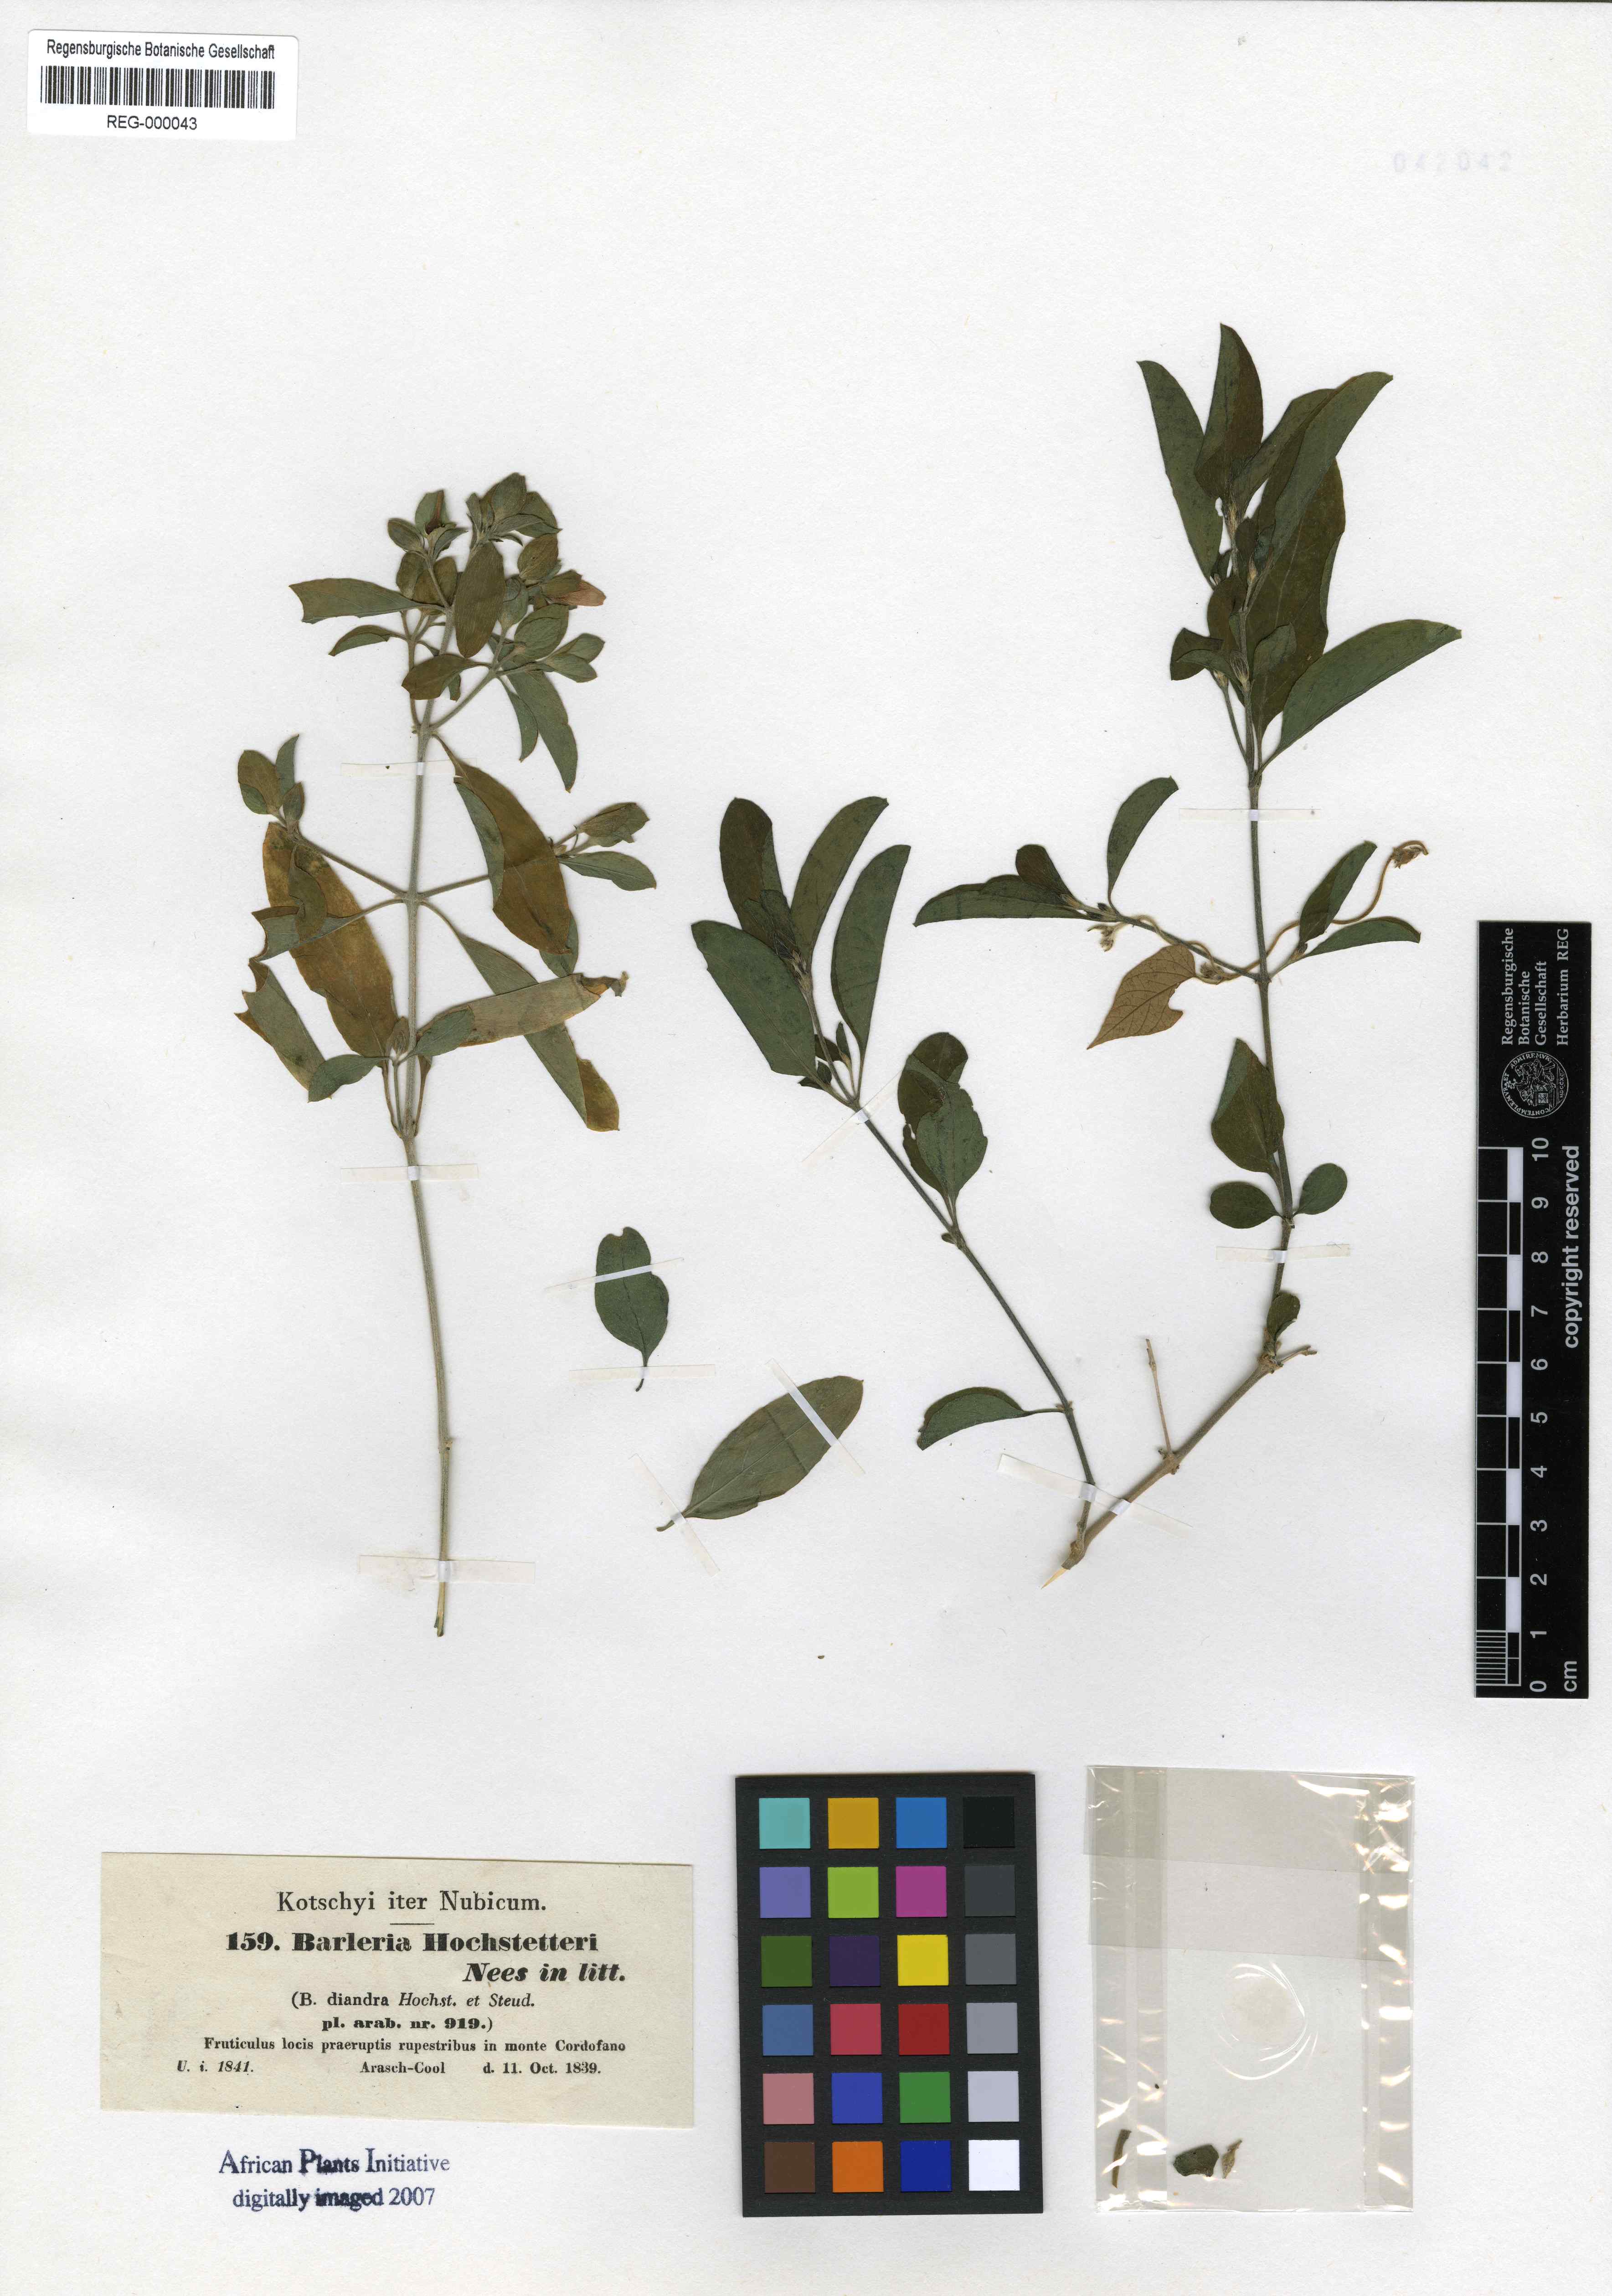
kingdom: Plantae
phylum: Tracheophyta
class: Magnoliopsida
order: Lamiales
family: Acanthaceae
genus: Barleria
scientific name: Barleria hochstetteri
